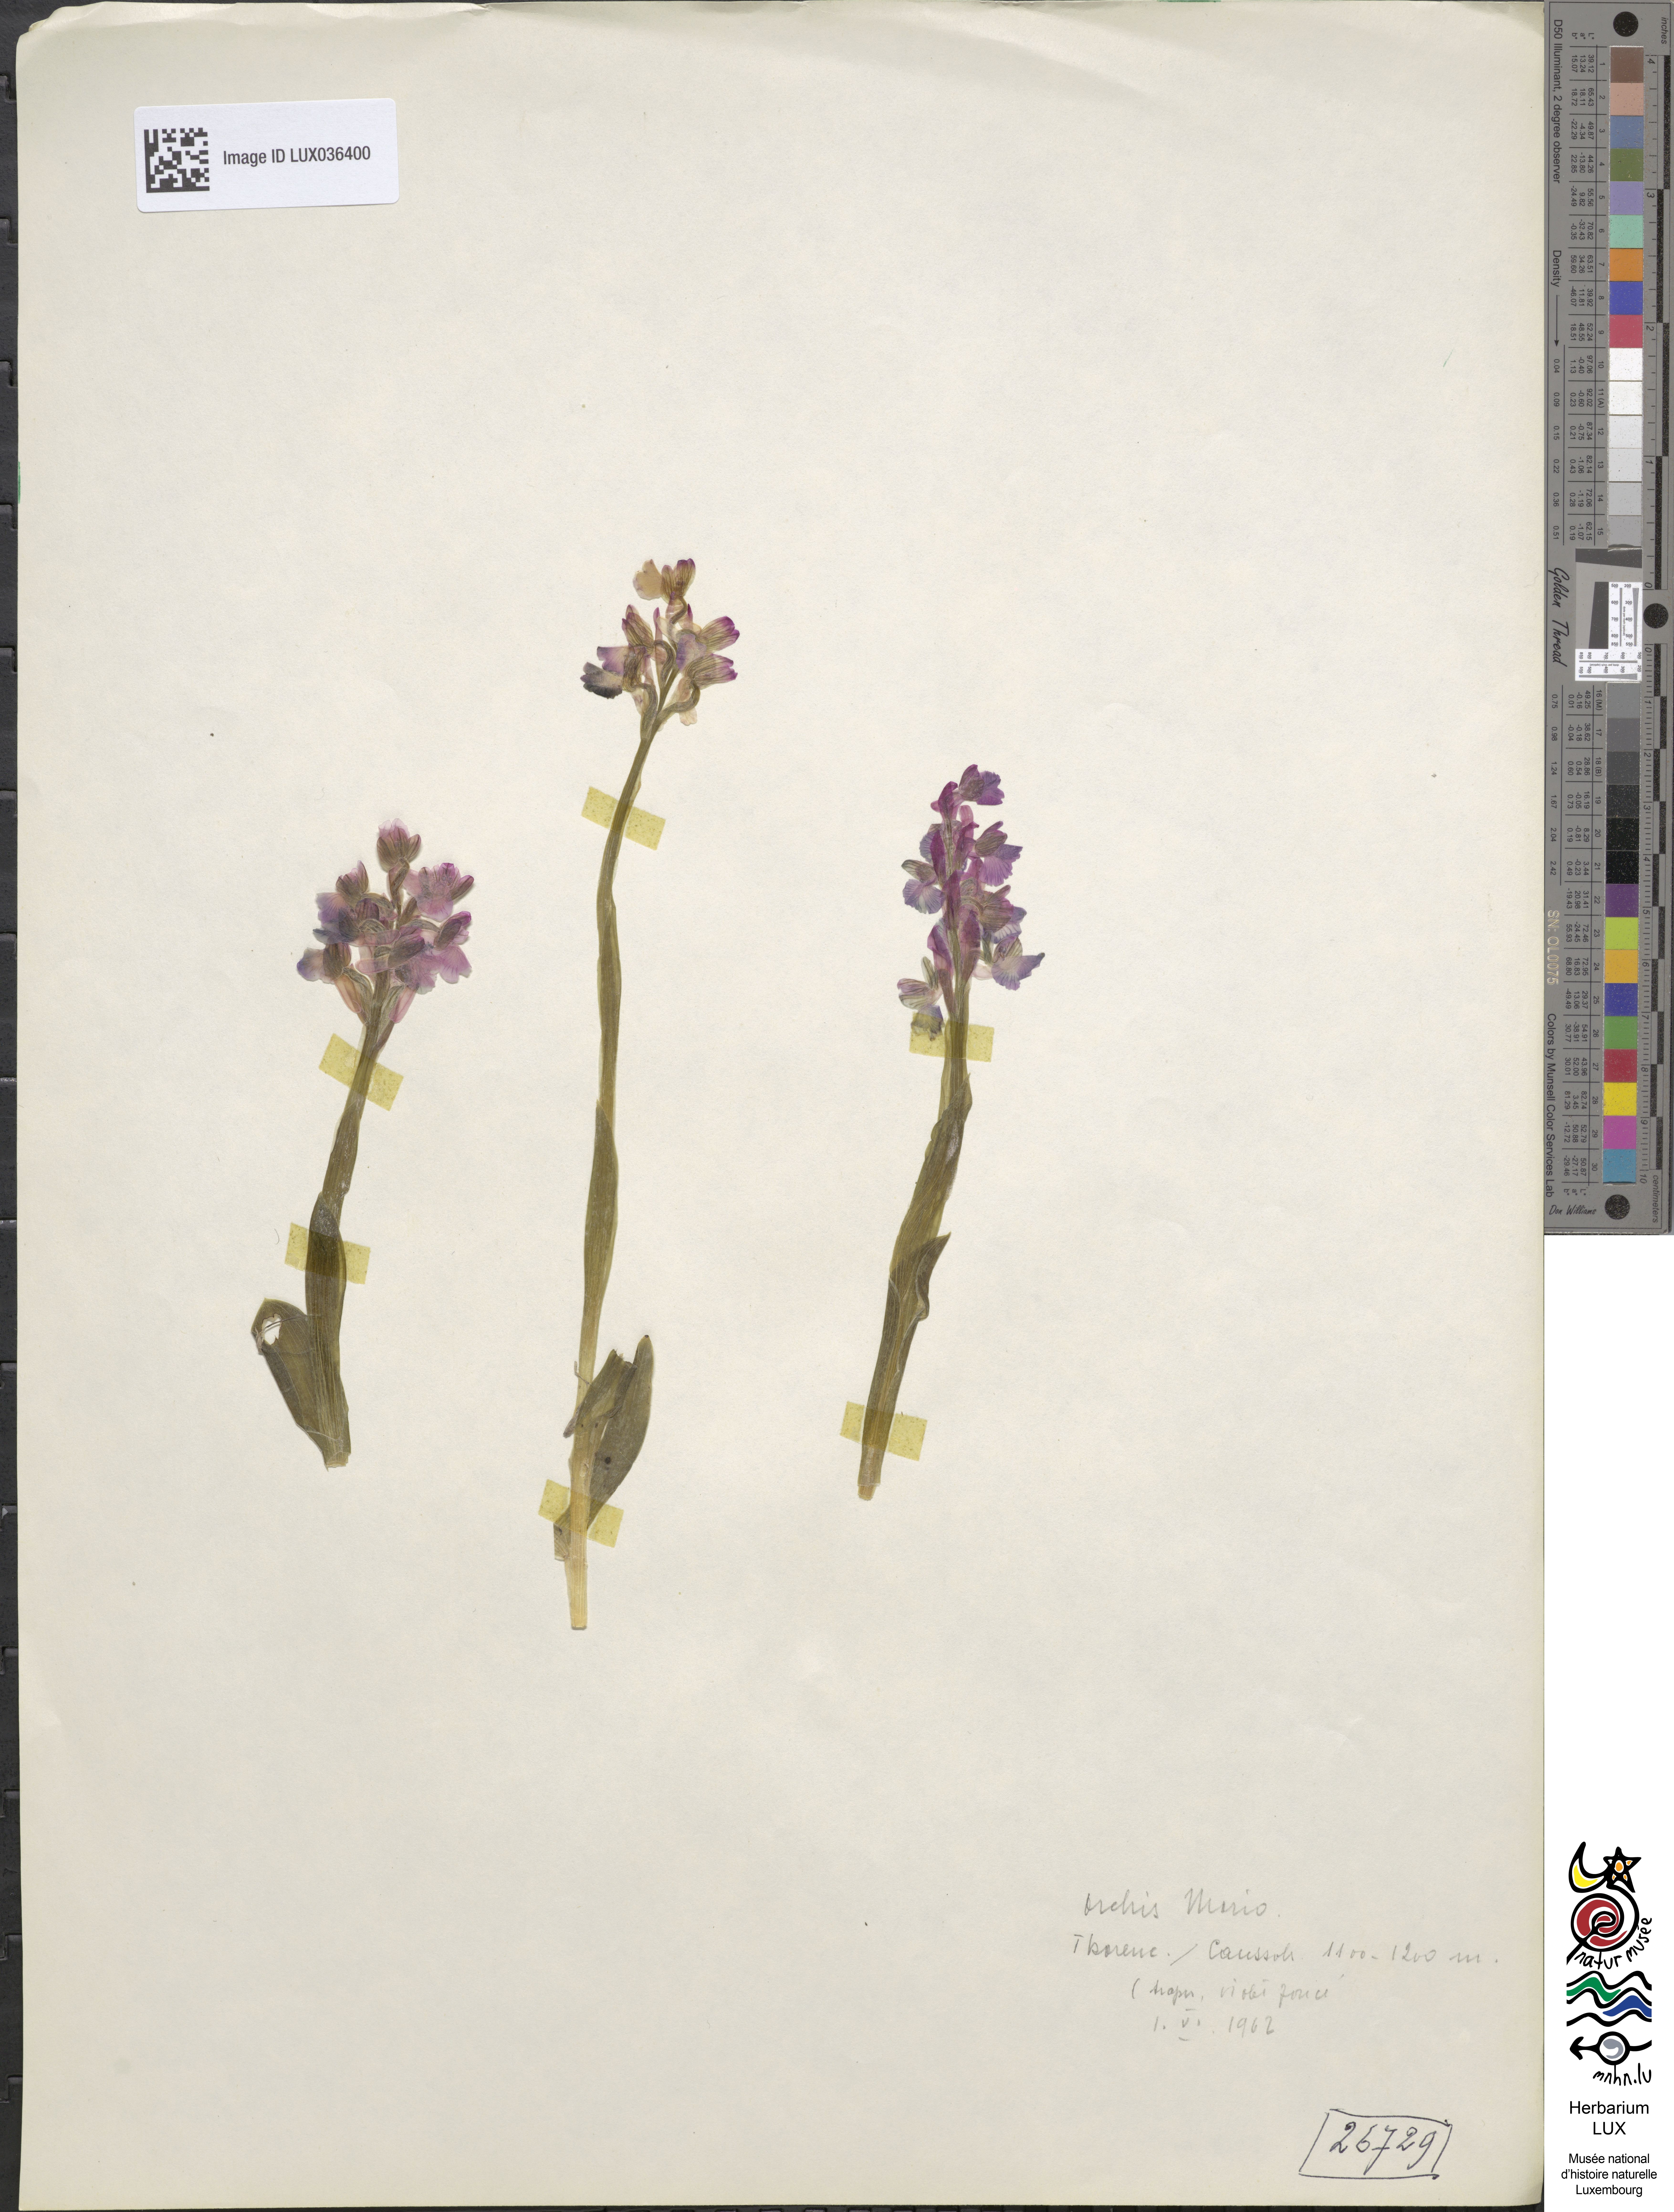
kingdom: Plantae
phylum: Tracheophyta
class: Liliopsida
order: Asparagales
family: Orchidaceae
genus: Anacamptis
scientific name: Anacamptis morio
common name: Green-winged orchid
